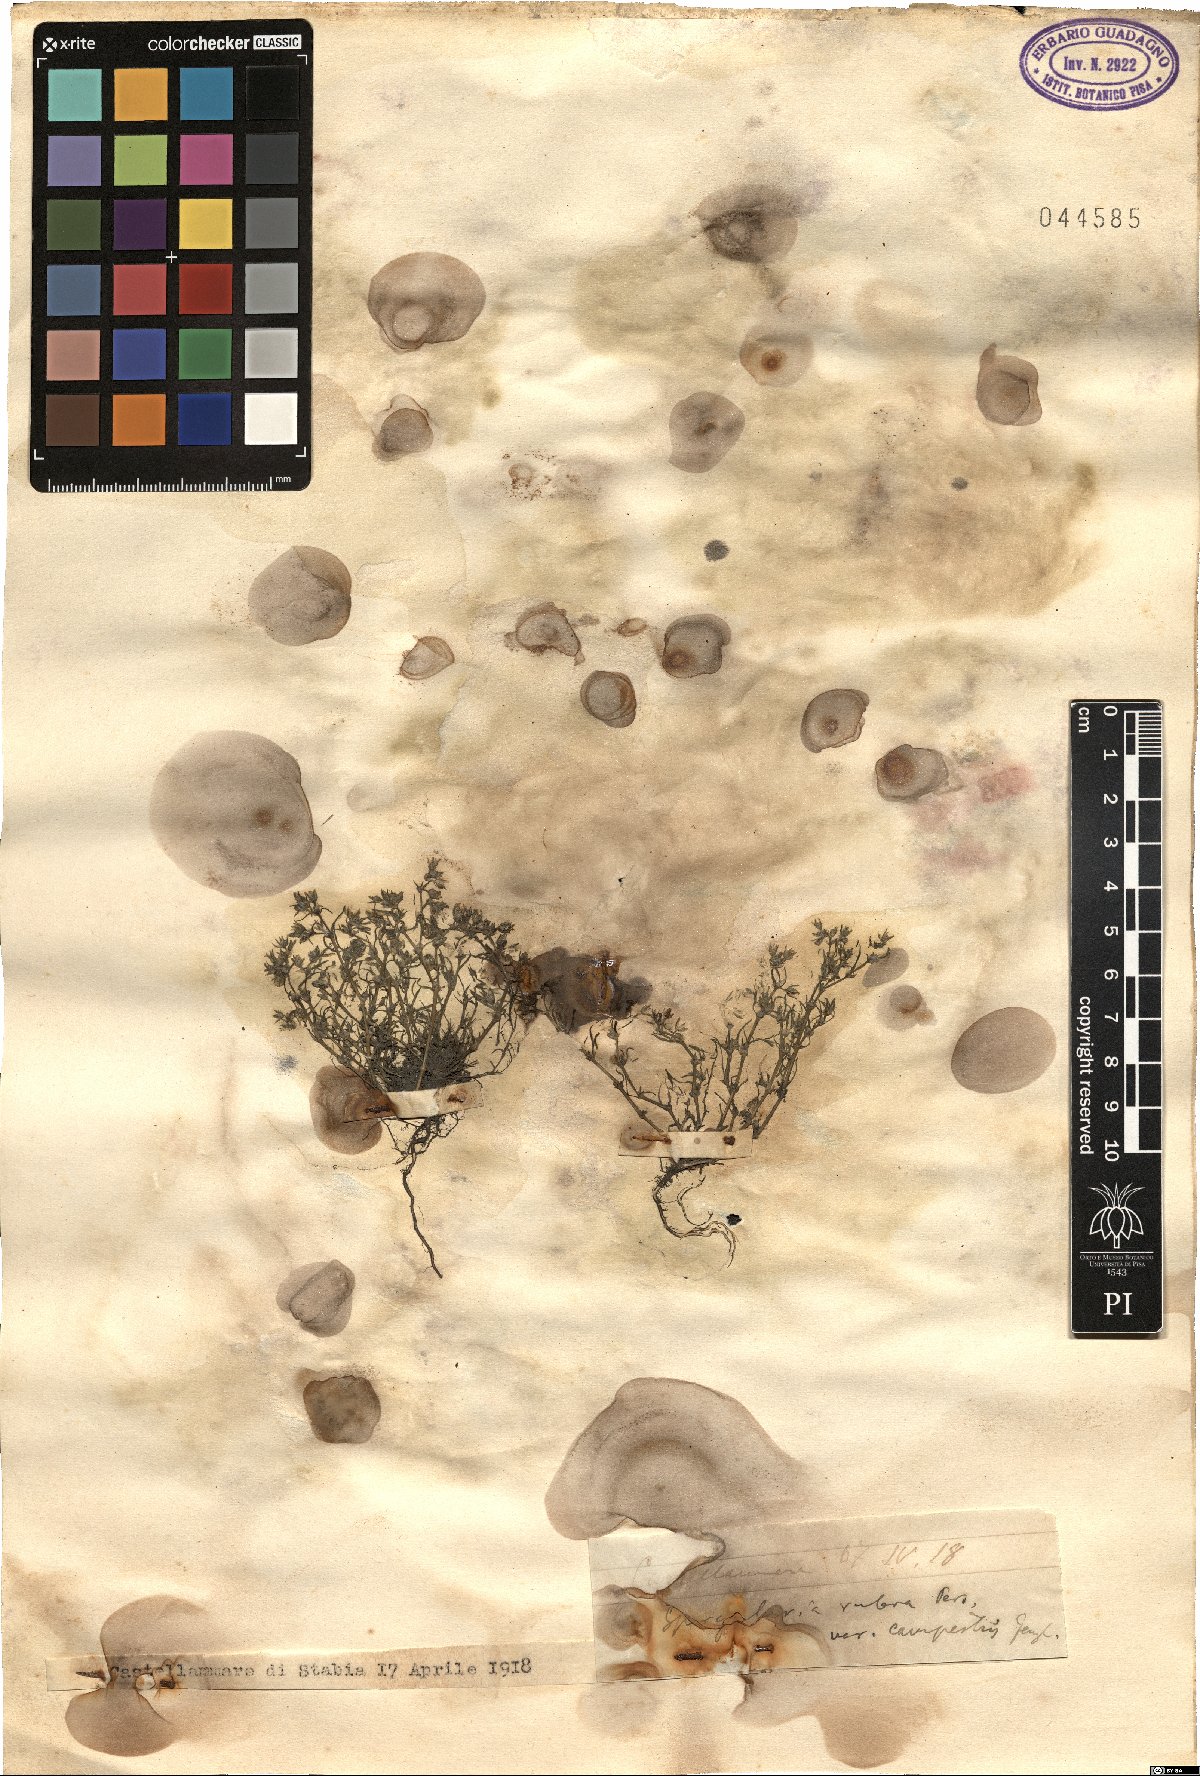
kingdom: Plantae
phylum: Tracheophyta
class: Magnoliopsida
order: Caryophyllales
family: Caryophyllaceae
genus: Spergularia
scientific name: Spergularia rubra
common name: Red sand-spurrey
